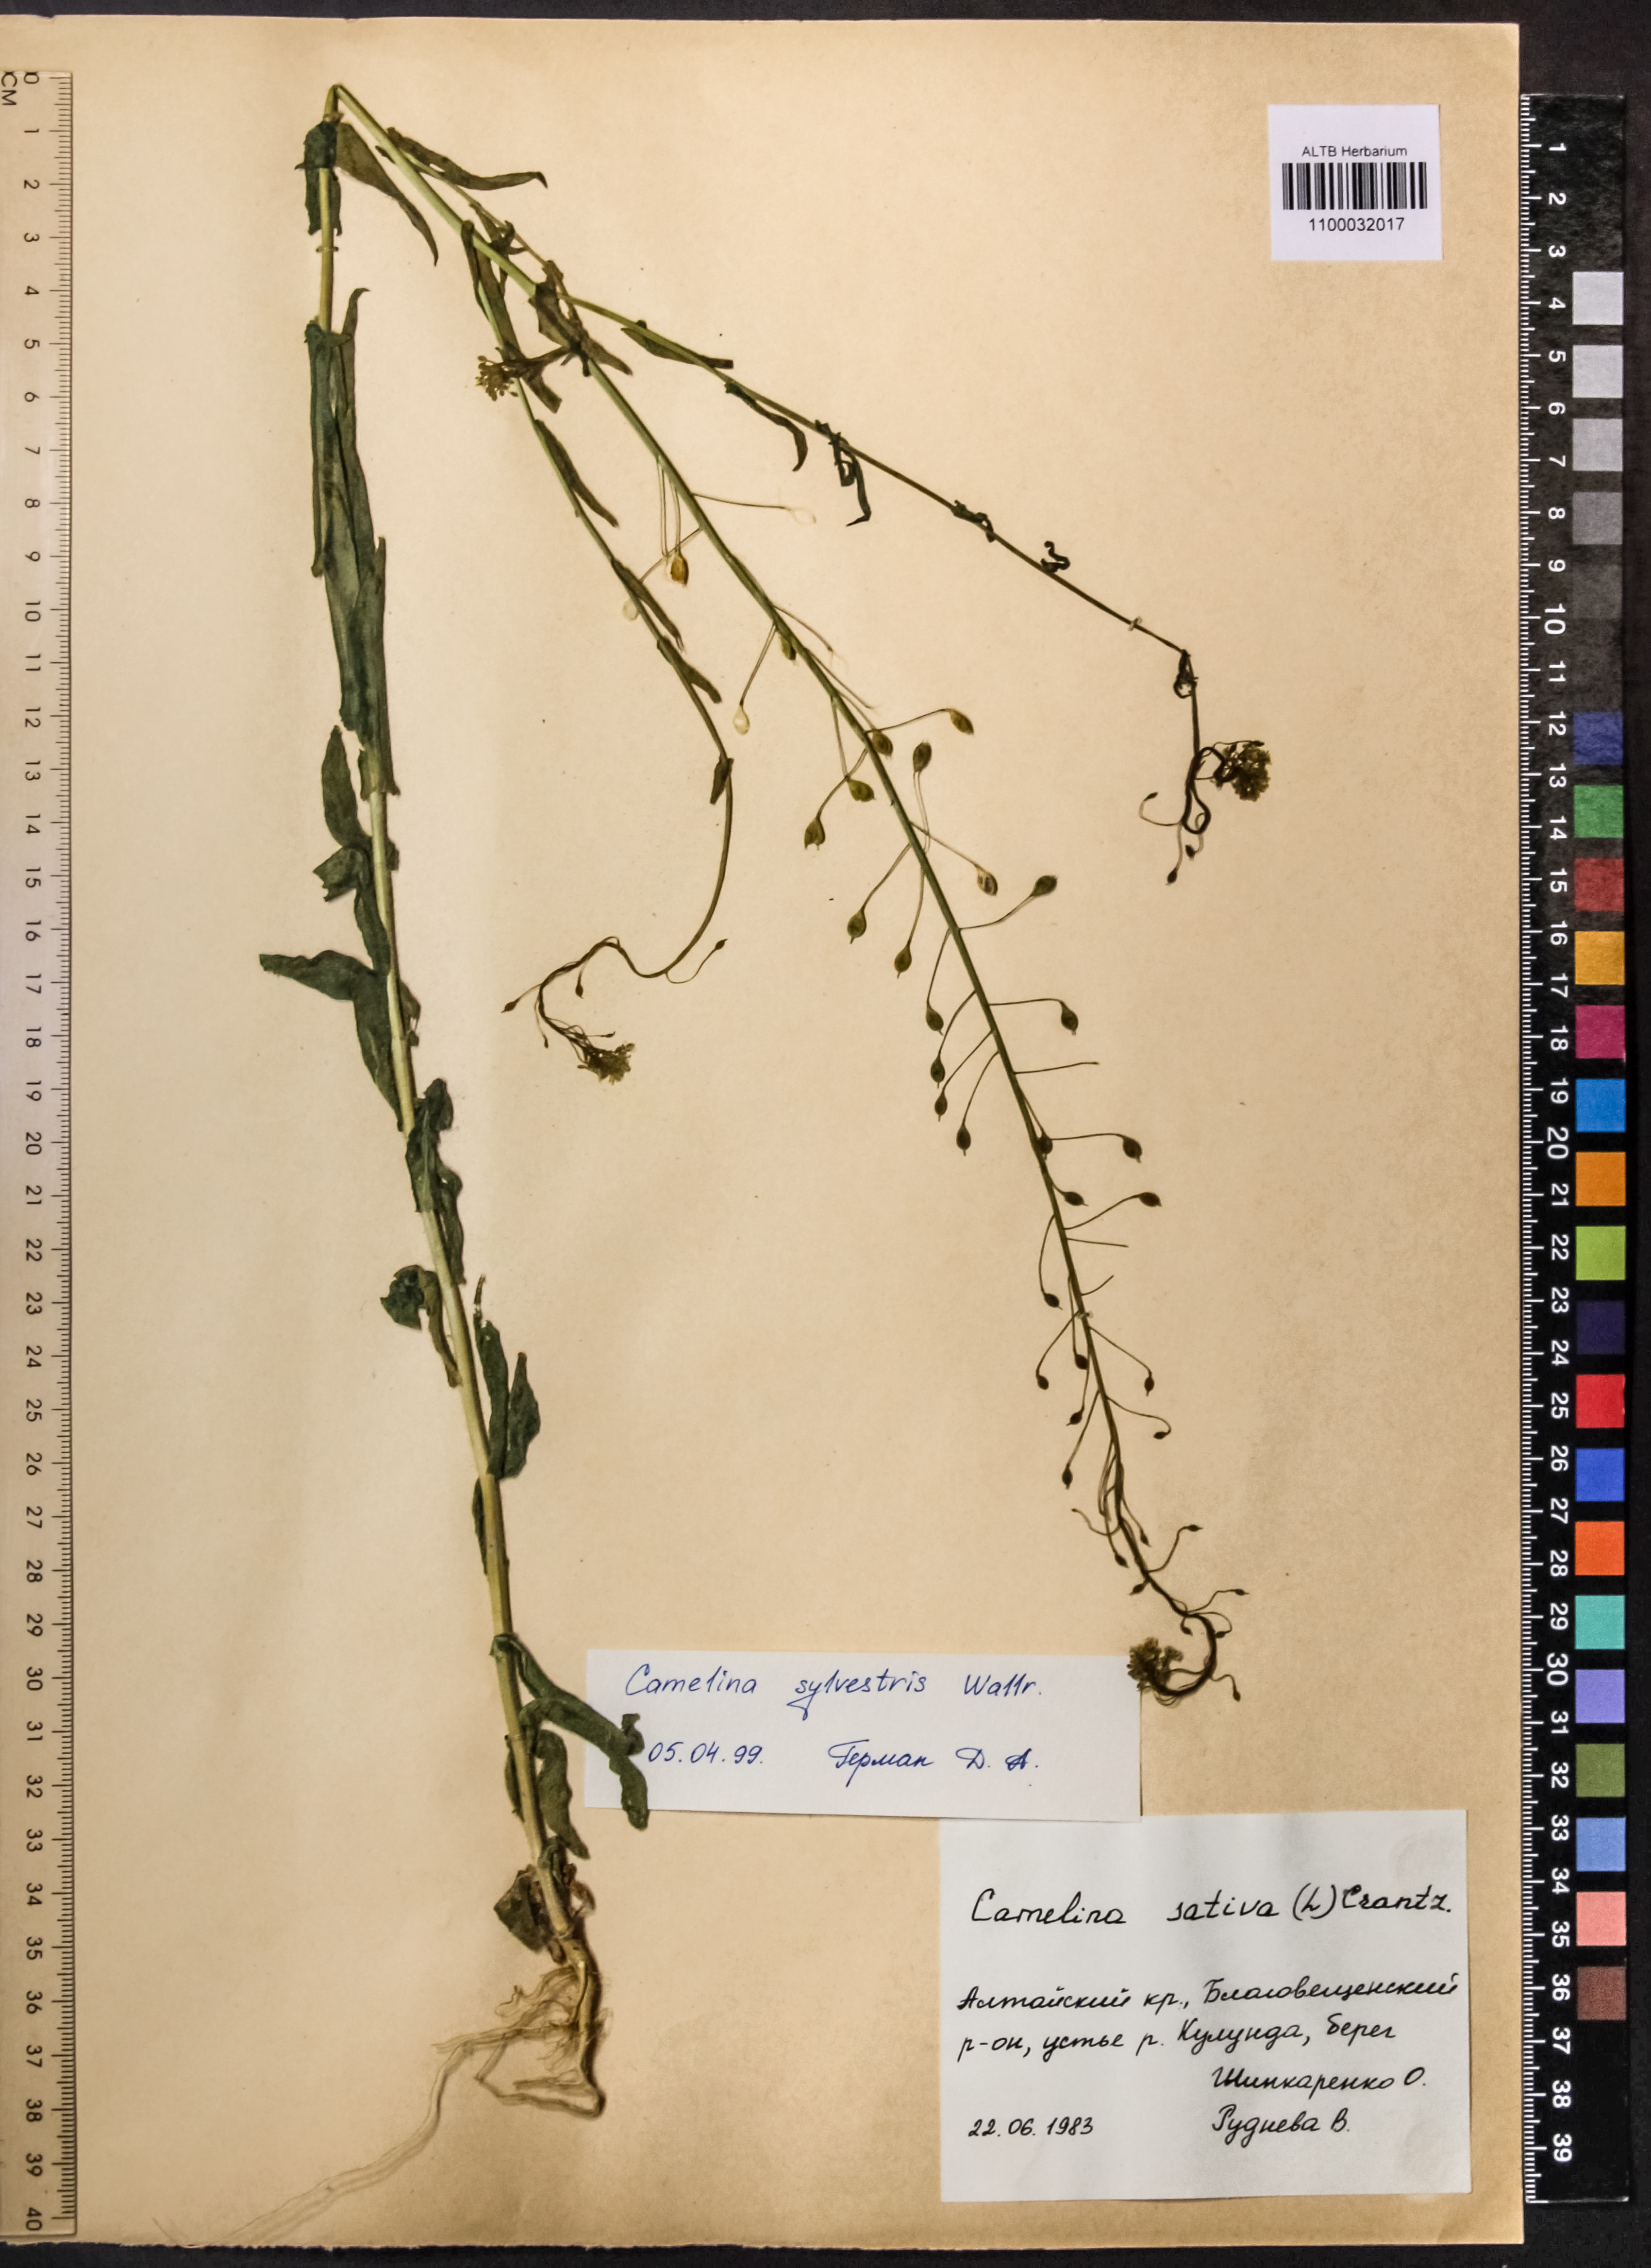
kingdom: Plantae
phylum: Tracheophyta
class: Magnoliopsida
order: Brassicales
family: Brassicaceae
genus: Camelina
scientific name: Camelina microcarpa
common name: Lesser gold-of-pleasure
